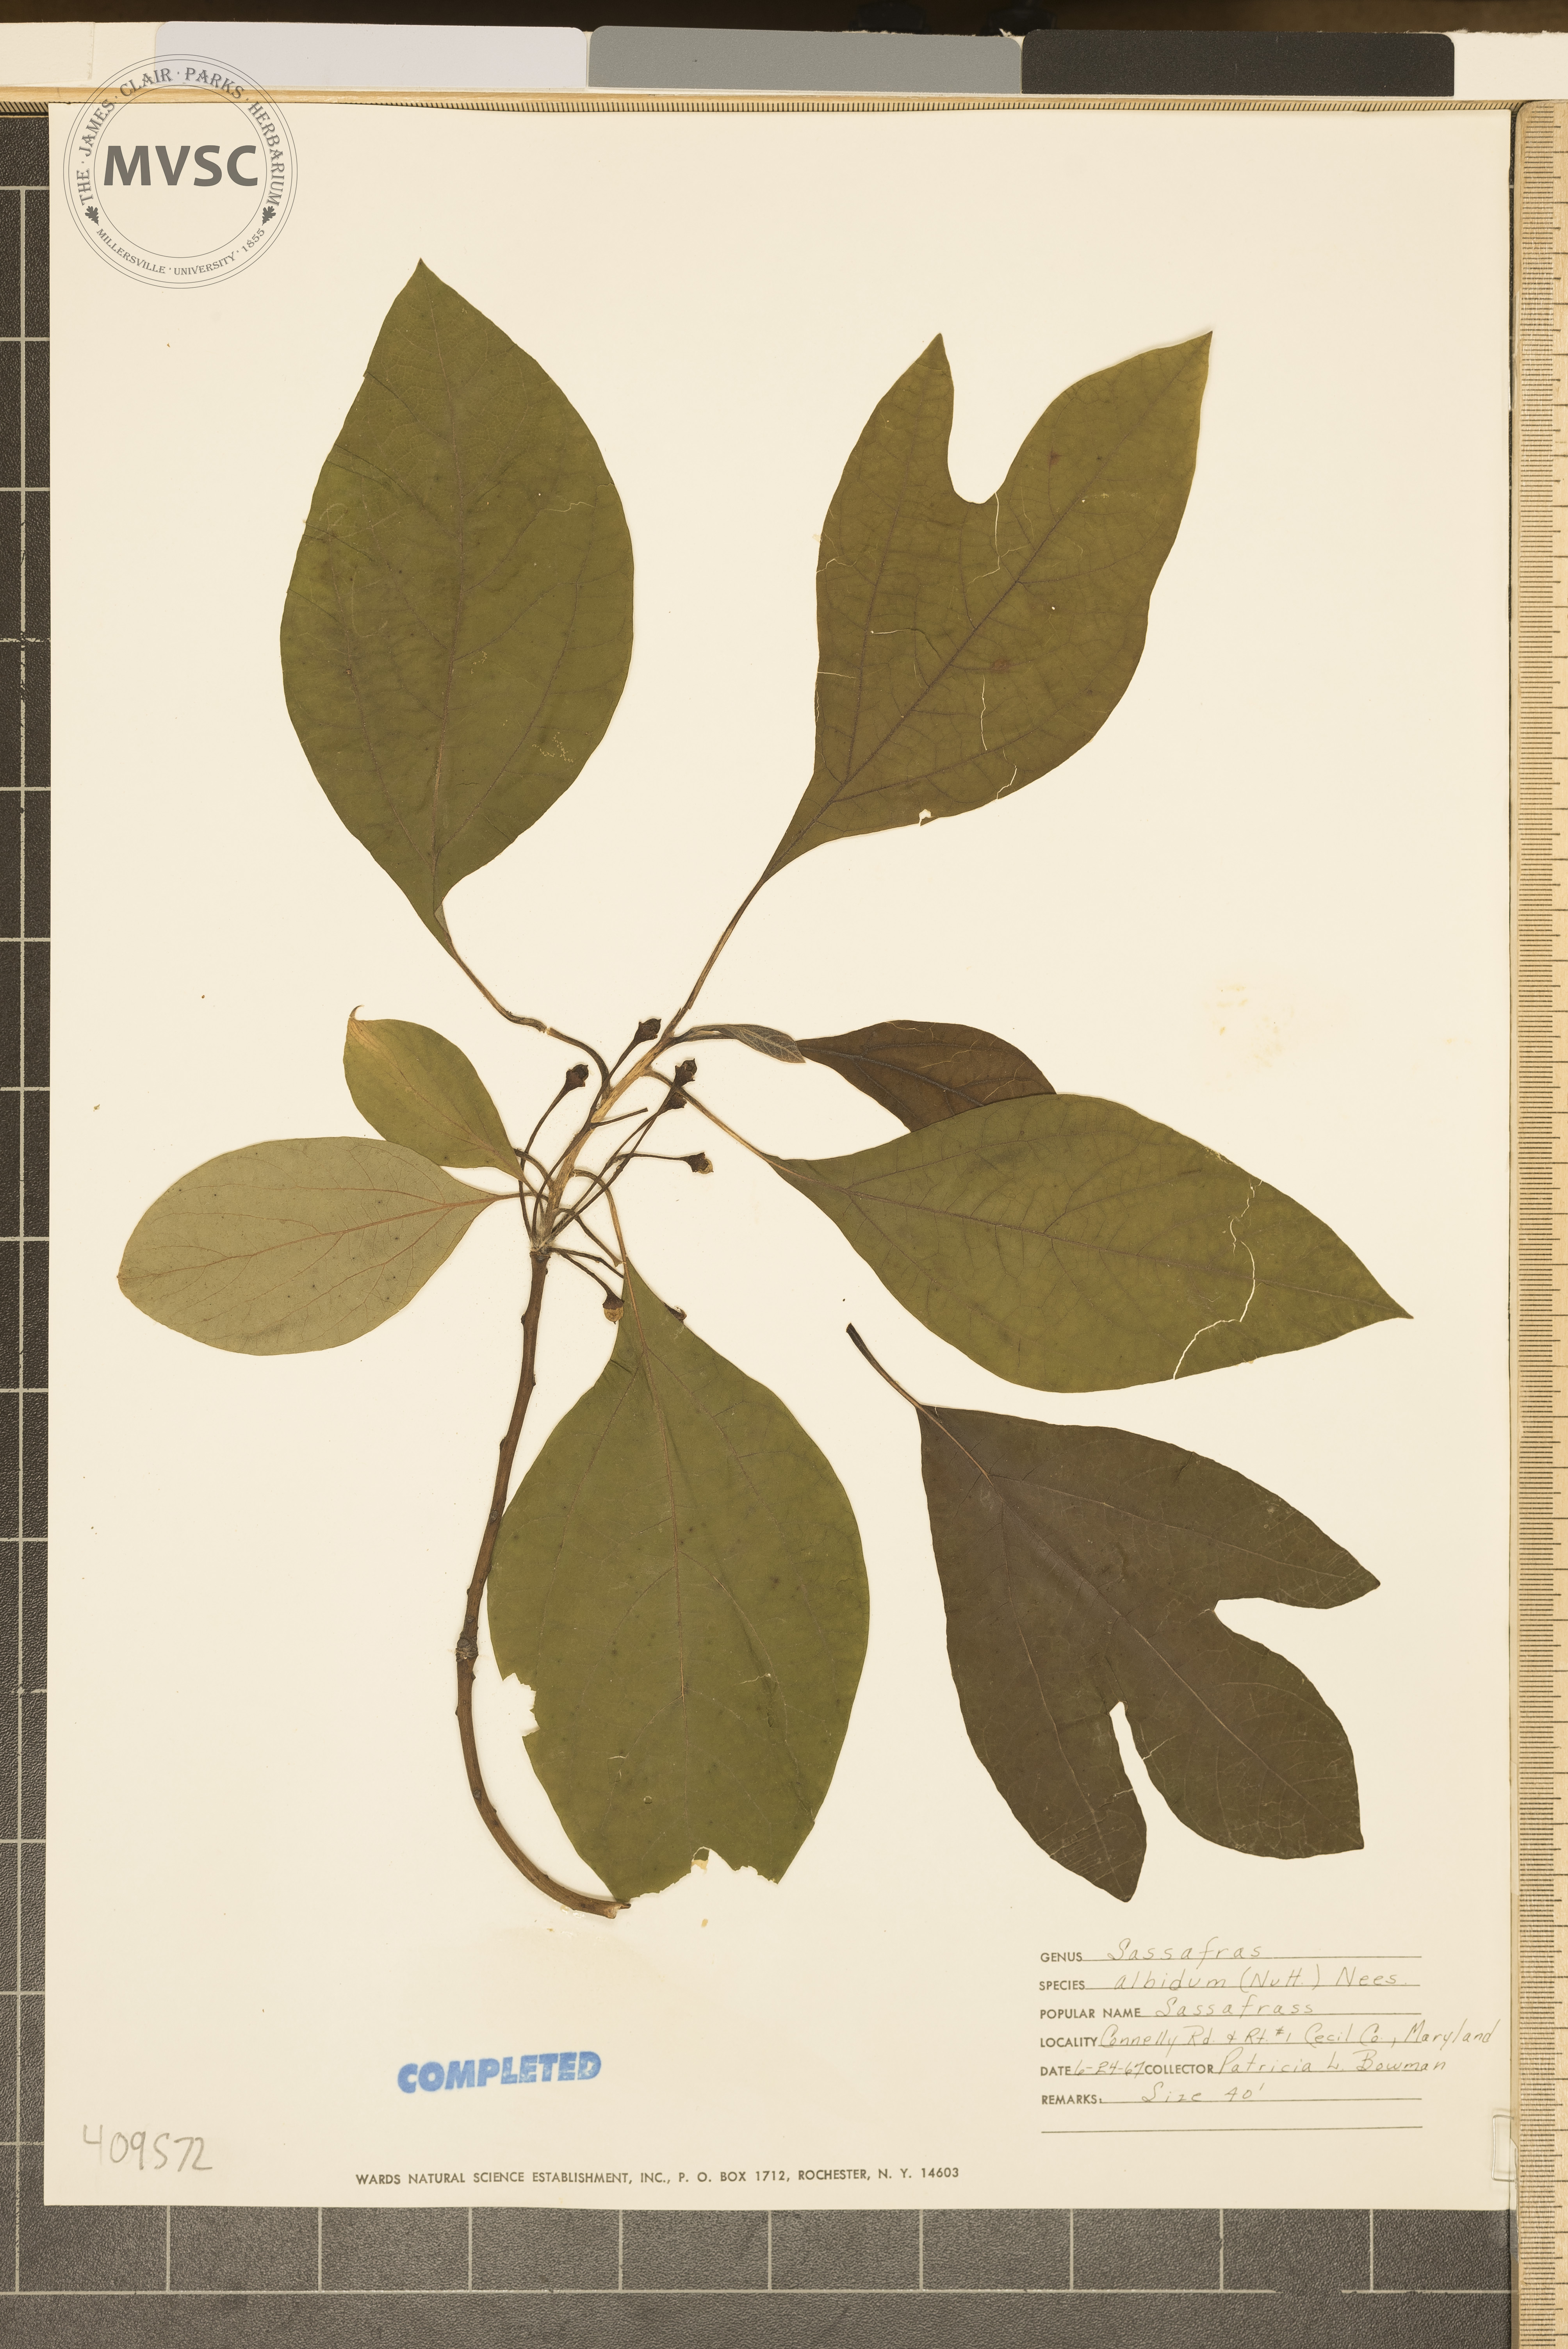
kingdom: Plantae
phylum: Tracheophyta
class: Magnoliopsida
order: Laurales
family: Lauraceae
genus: Sassafras
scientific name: Sassafras albidum
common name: Sassafras
